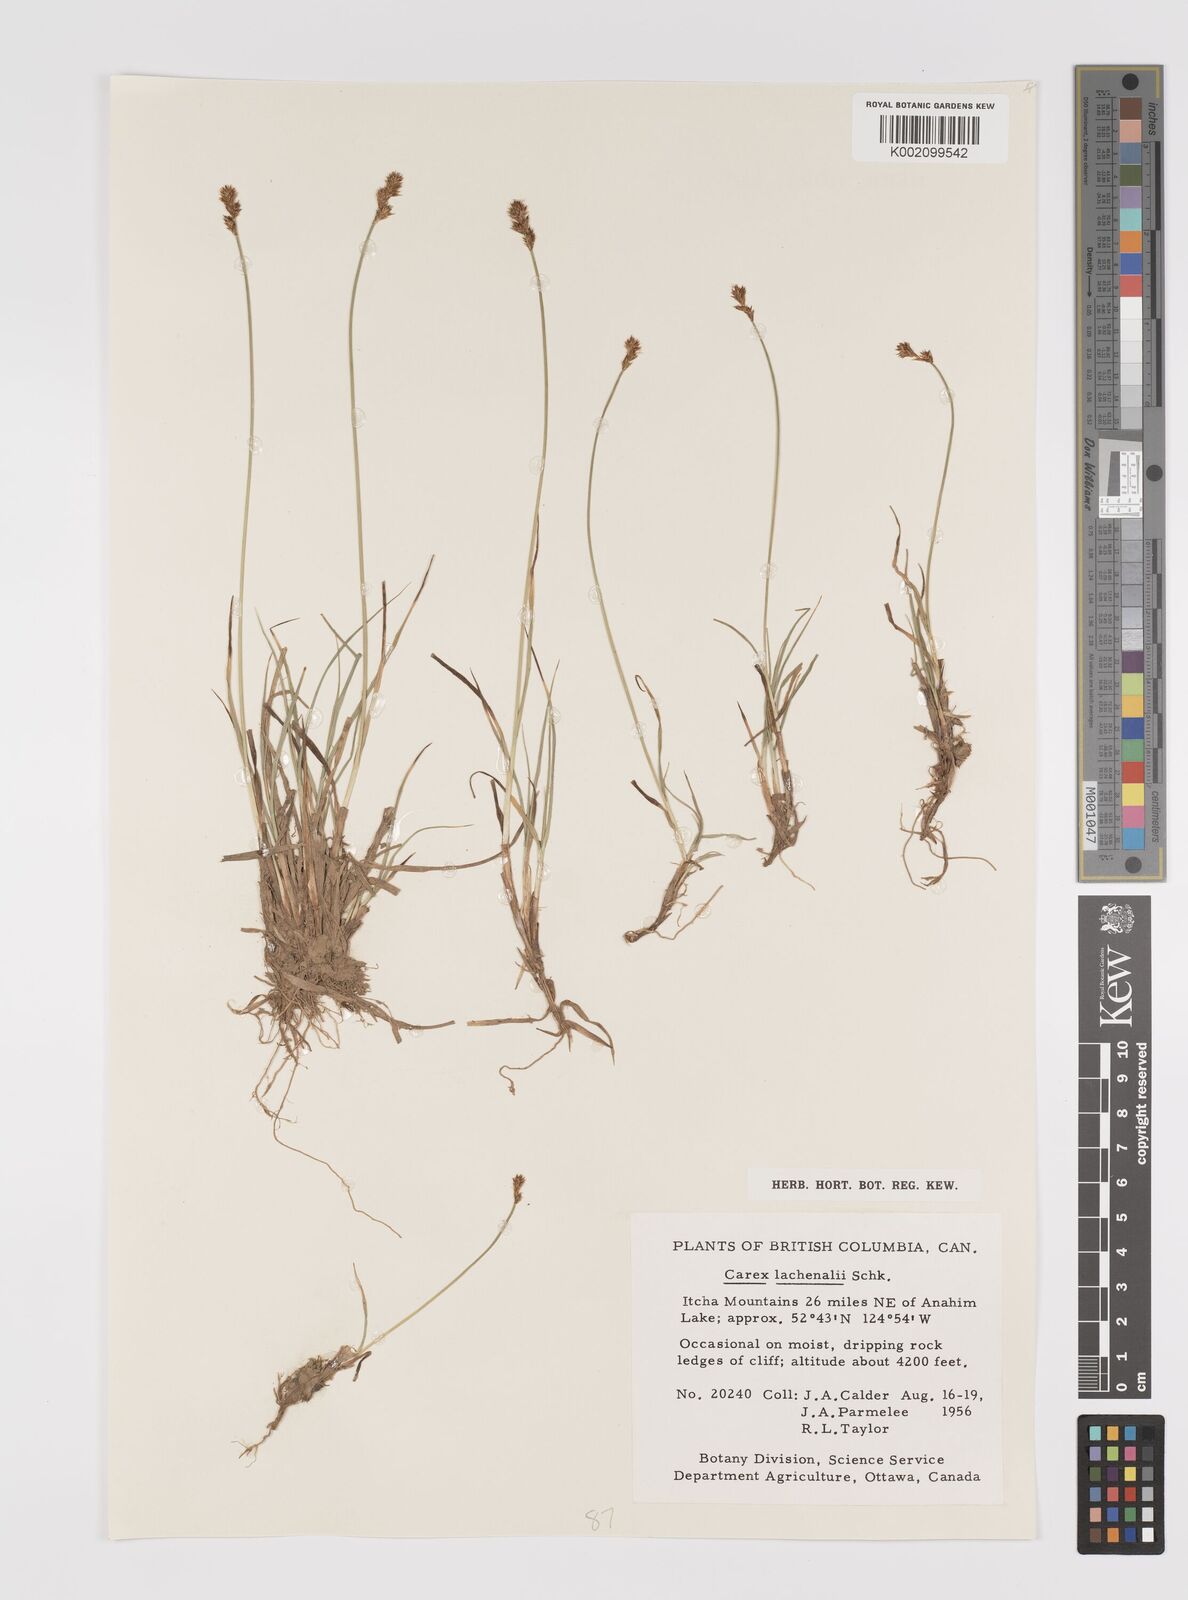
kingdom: Plantae
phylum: Tracheophyta
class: Liliopsida
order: Poales
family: Cyperaceae
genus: Carex
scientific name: Carex lachenalii
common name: Hare's-foot sedge
